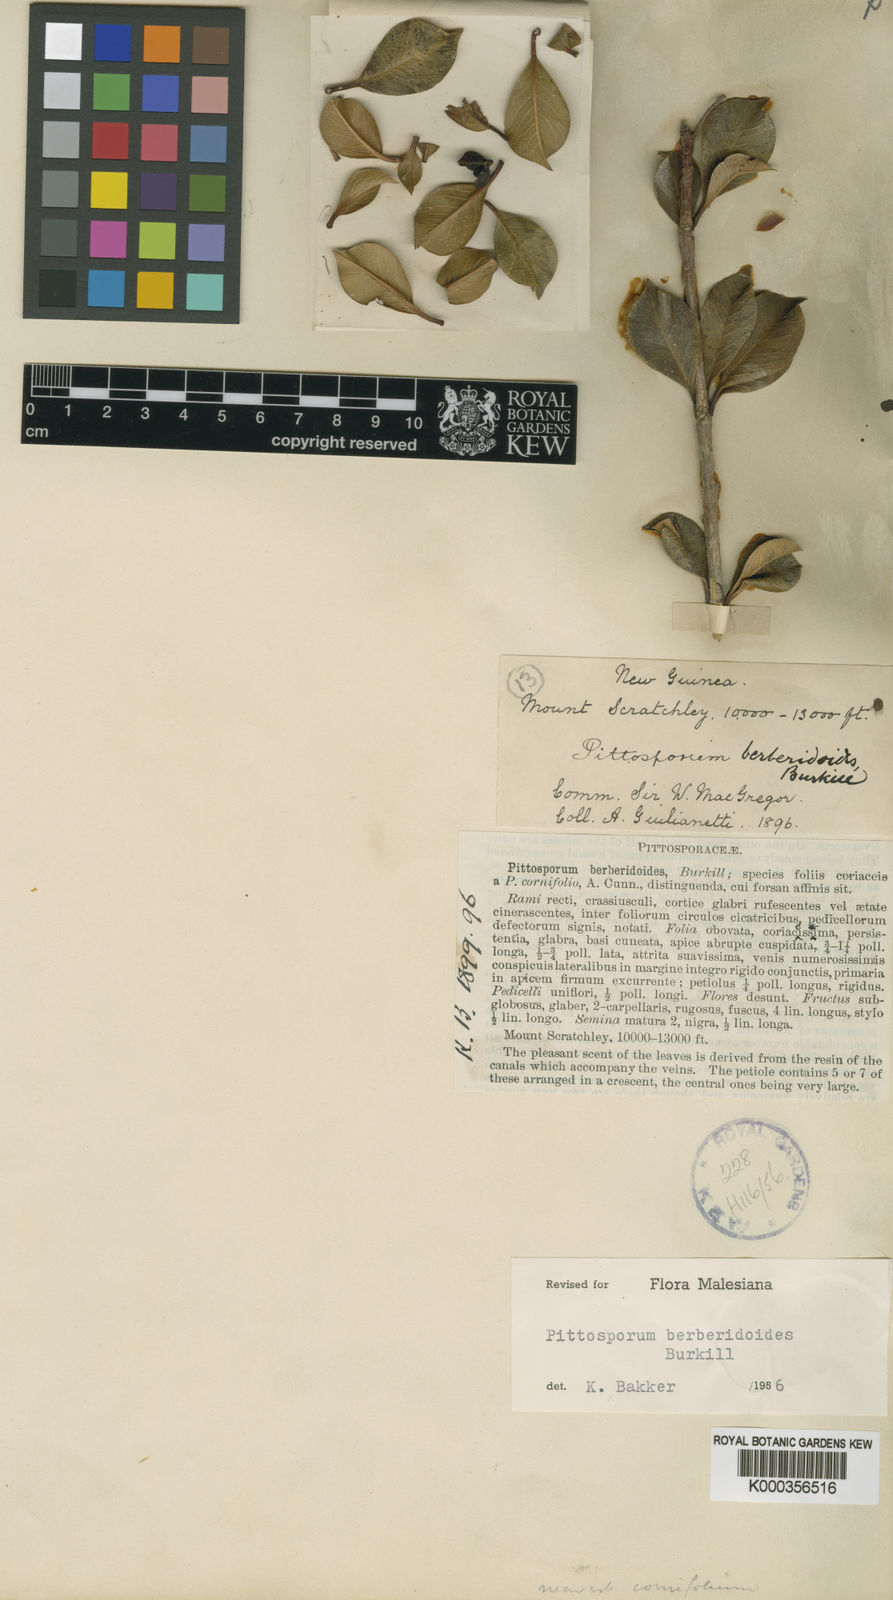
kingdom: Plantae
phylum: Tracheophyta
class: Magnoliopsida
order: Apiales
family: Pittosporaceae
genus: Pittosporum
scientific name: Pittosporum berberidoides
